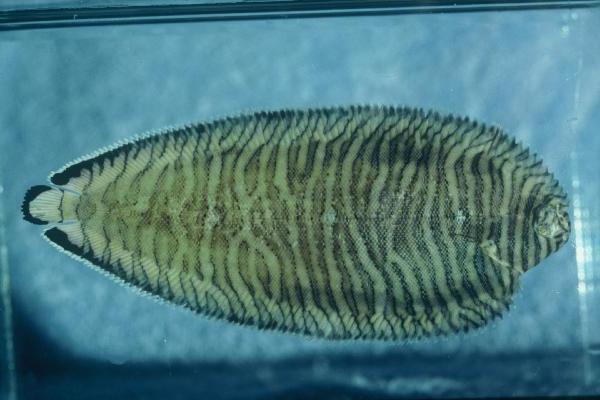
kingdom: Animalia
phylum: Chordata
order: Pleuronectiformes
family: Soleidae
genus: Soleichthys
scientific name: Soleichthys heterorhinos
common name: Banded sole
